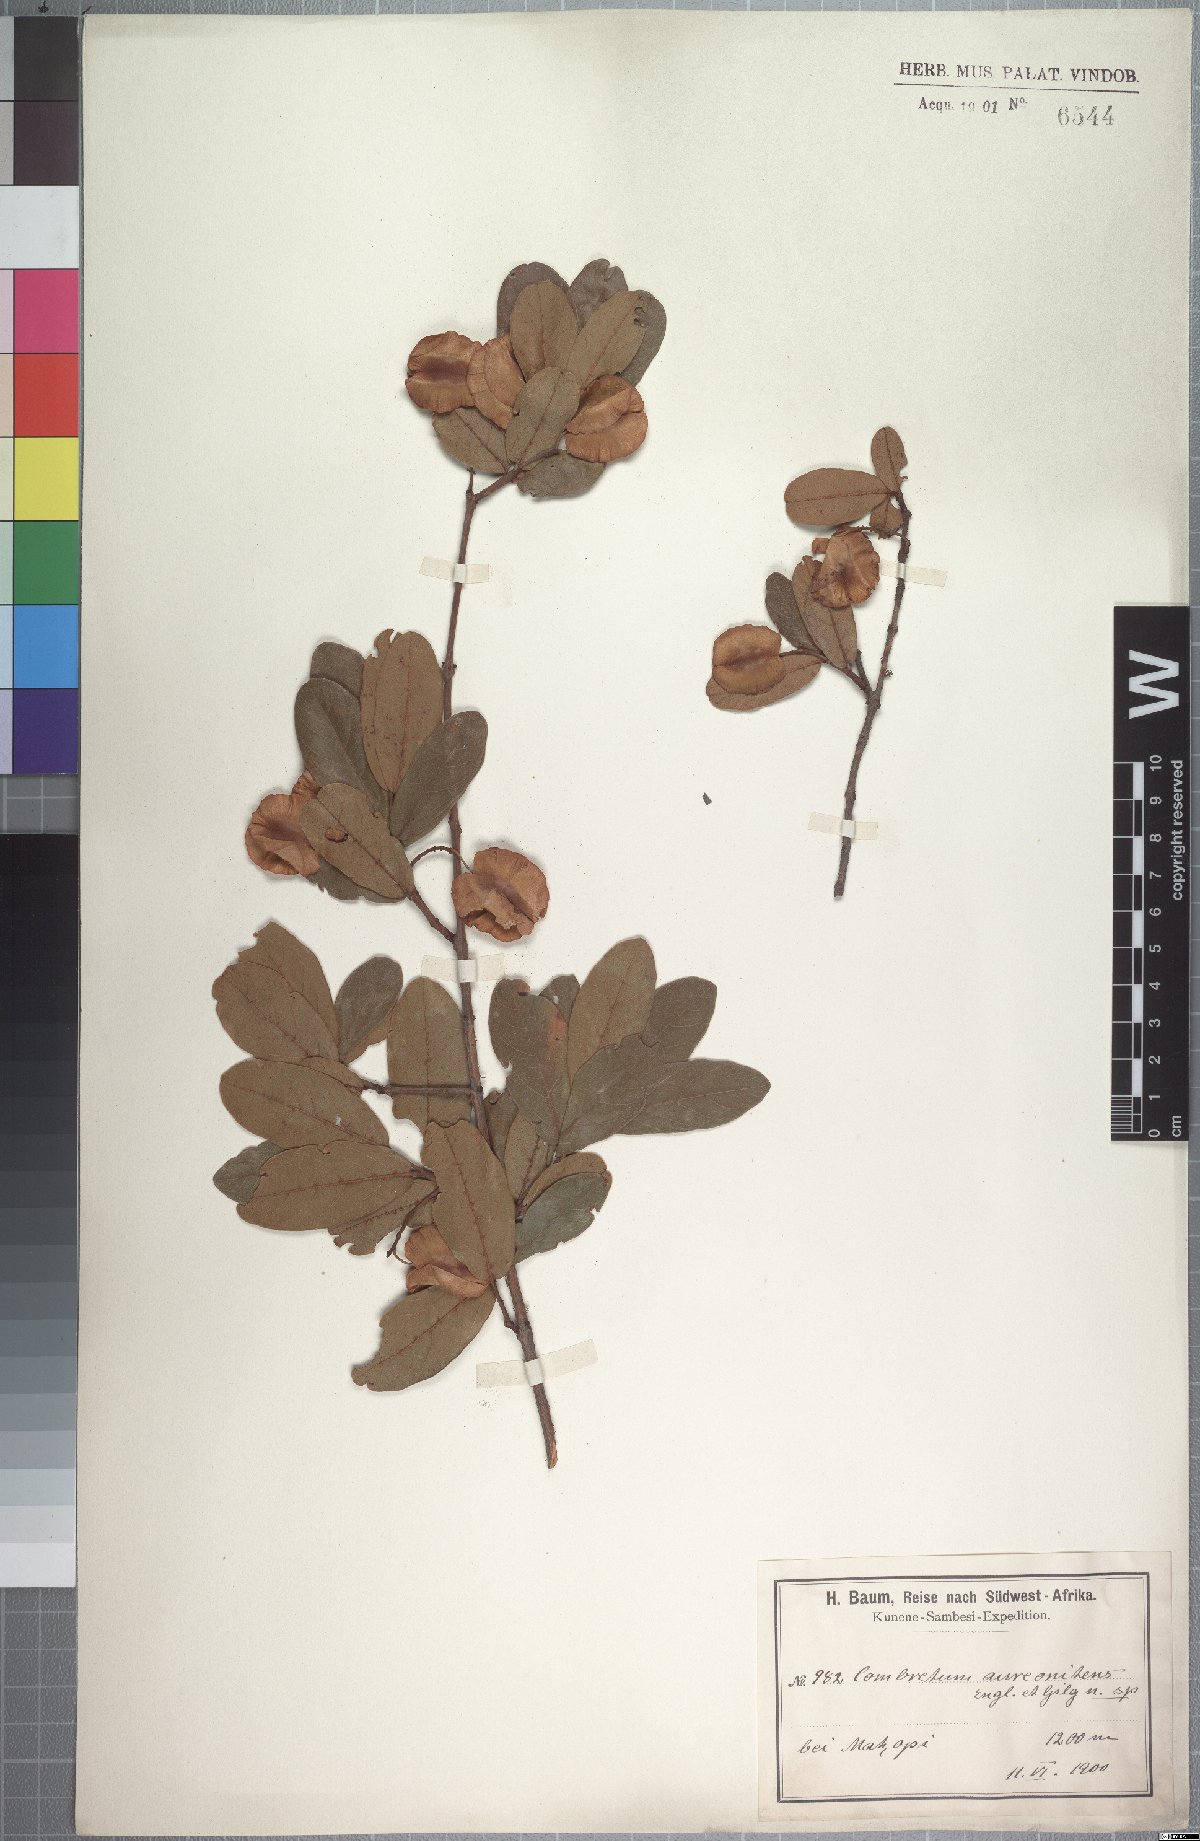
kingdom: Plantae
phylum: Tracheophyta
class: Magnoliopsida
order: Myrtales
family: Combretaceae
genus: Combretum
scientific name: Combretum aureonitens
